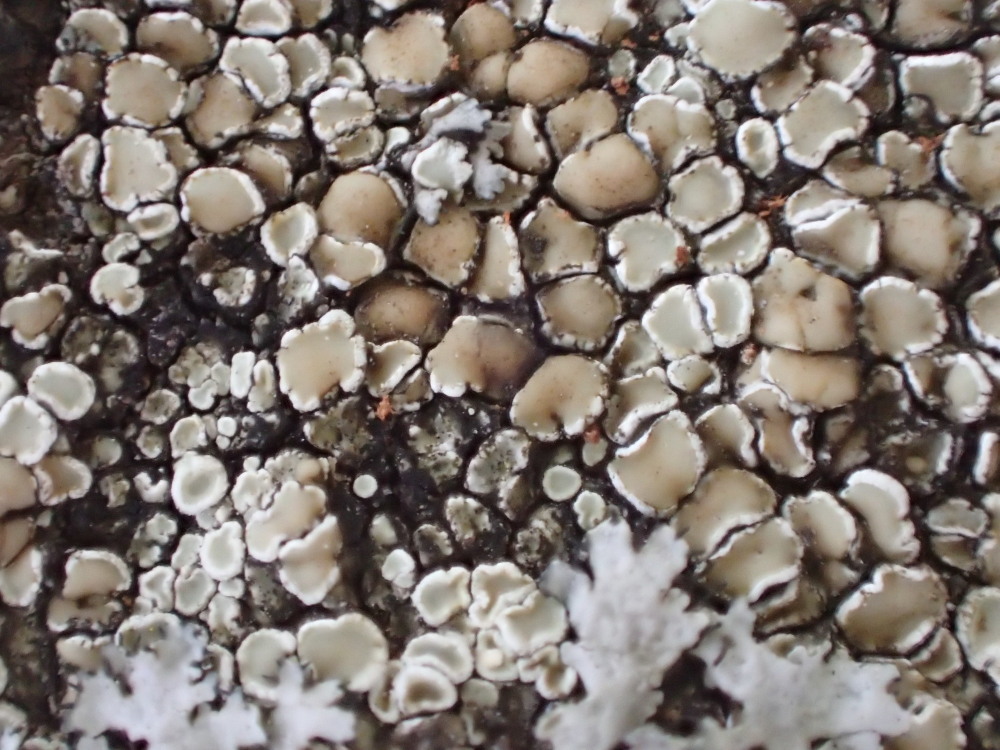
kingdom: Fungi
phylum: Ascomycota
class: Lecanoromycetes
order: Lecanorales
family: Lecanoraceae
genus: Protoparmeliopsis
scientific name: Protoparmeliopsis muralis
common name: randfliget kantskivelav
